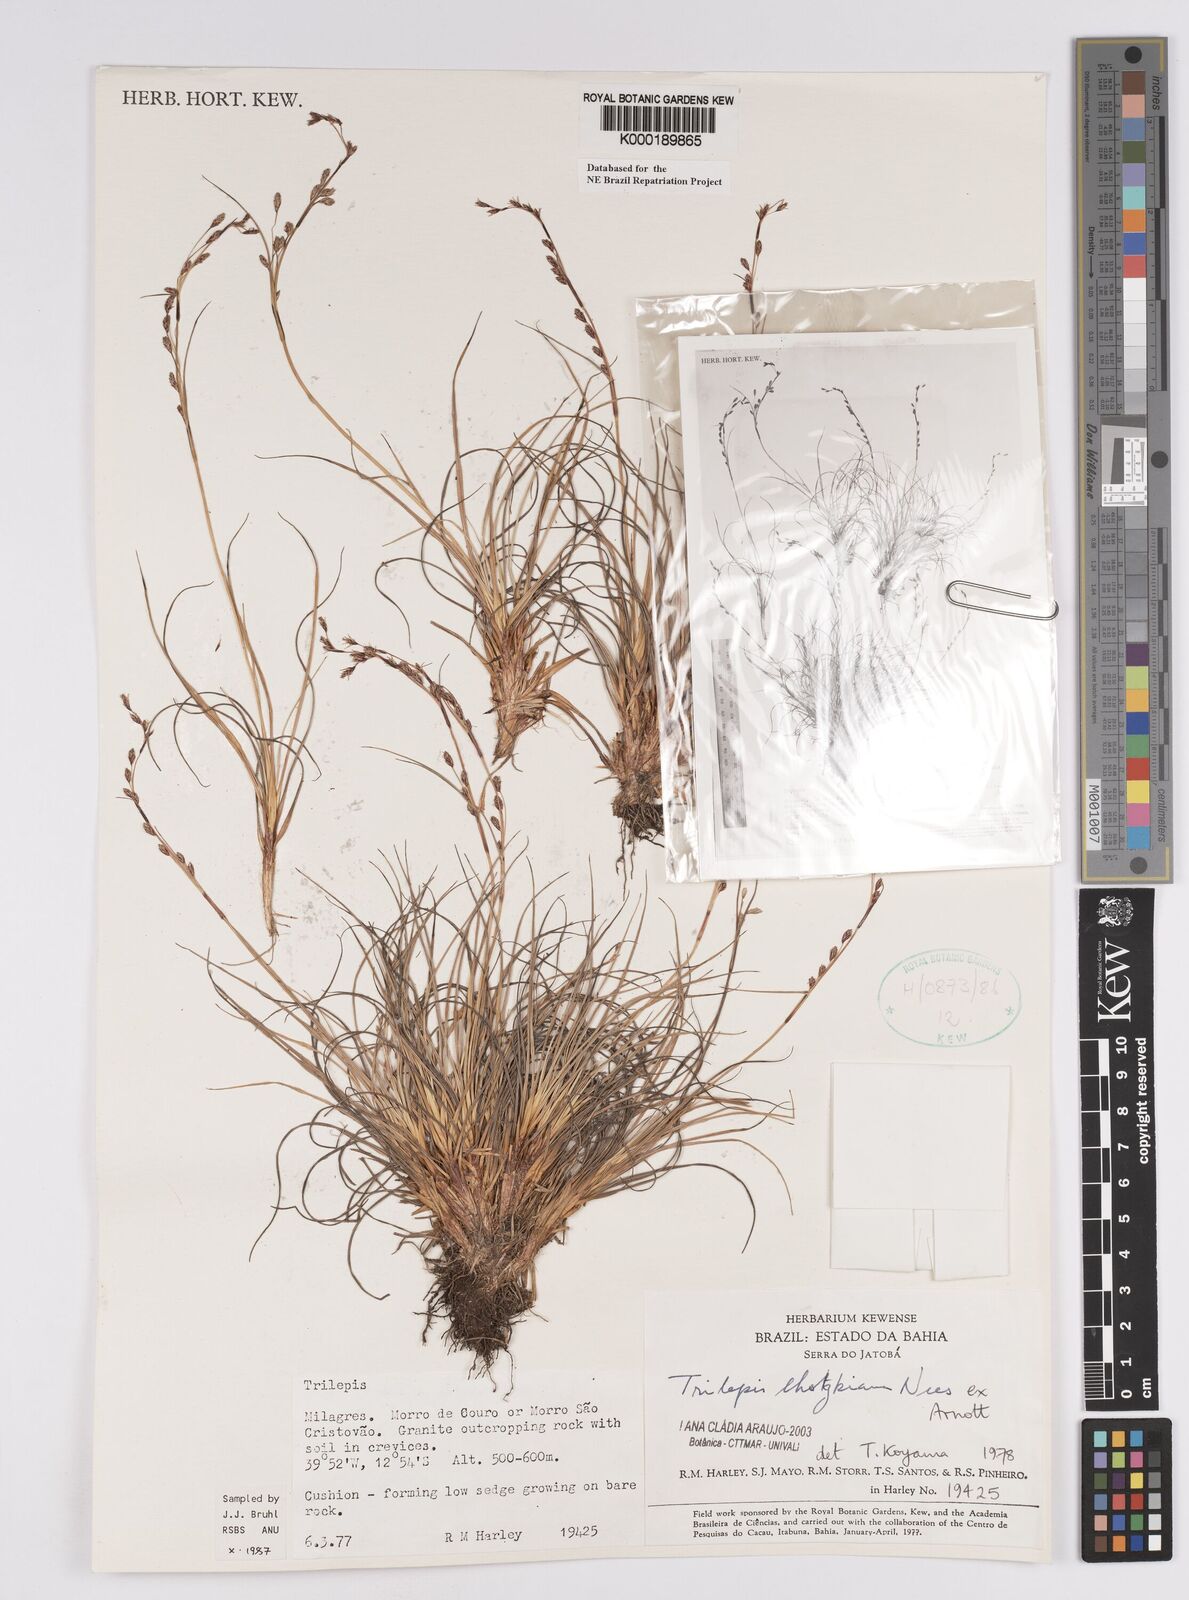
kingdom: Plantae
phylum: Tracheophyta
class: Liliopsida
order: Poales
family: Cyperaceae
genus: Trilepis
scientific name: Trilepis lhotzkiana
